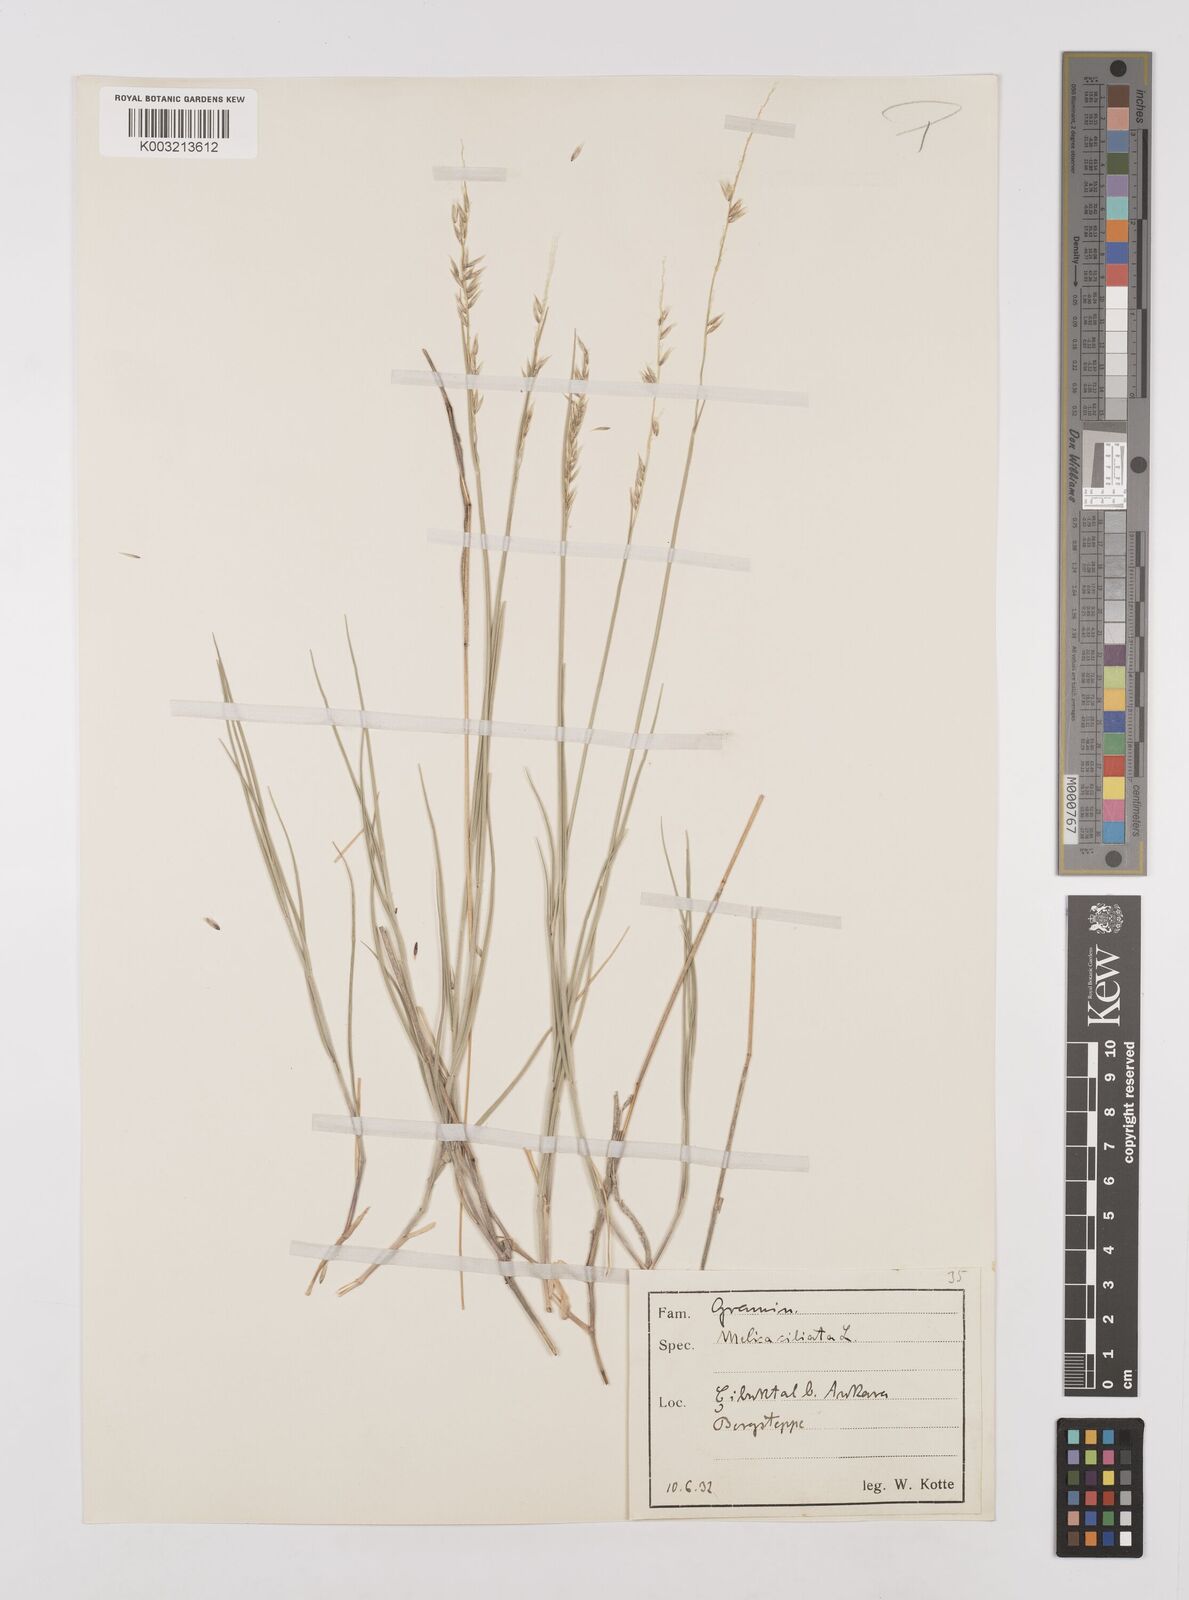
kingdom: Plantae
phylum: Tracheophyta
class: Liliopsida
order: Poales
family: Poaceae
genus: Melica
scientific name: Melica ciliata
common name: Hairy melicgrass
